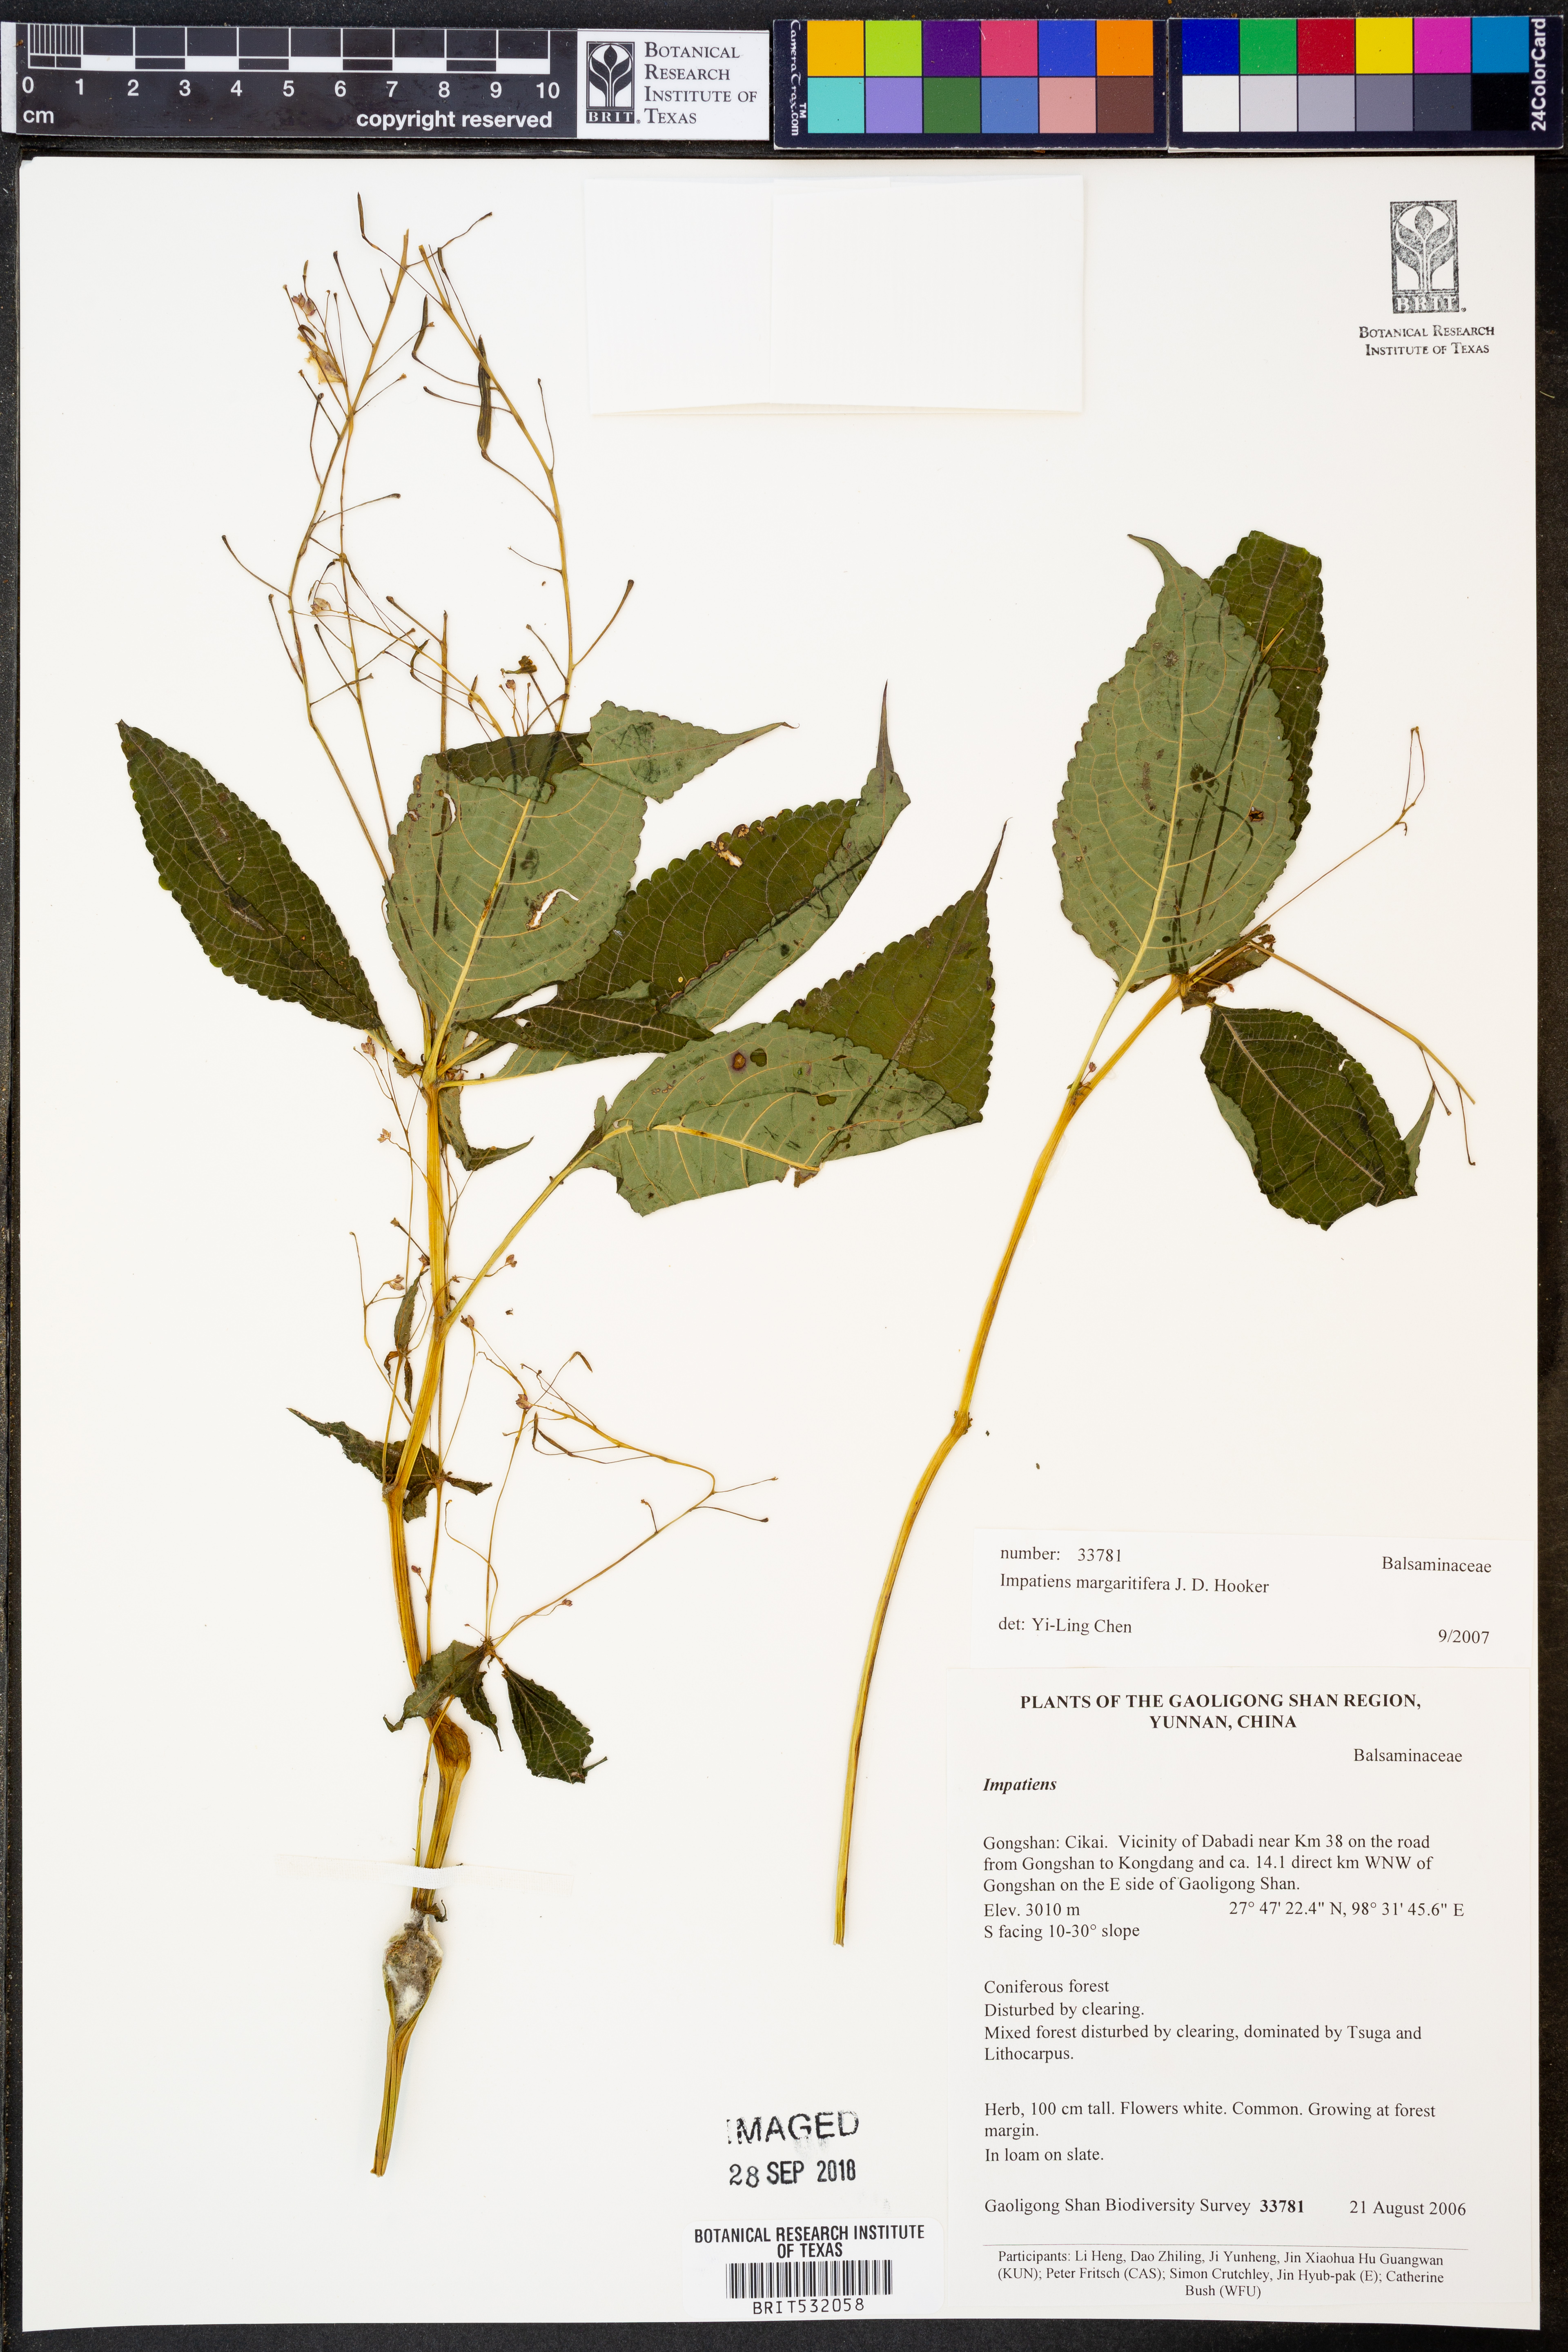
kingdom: Plantae
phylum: Tracheophyta
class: Magnoliopsida
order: Ericales
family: Balsaminaceae
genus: Impatiens
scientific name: Impatiens margaritifera
